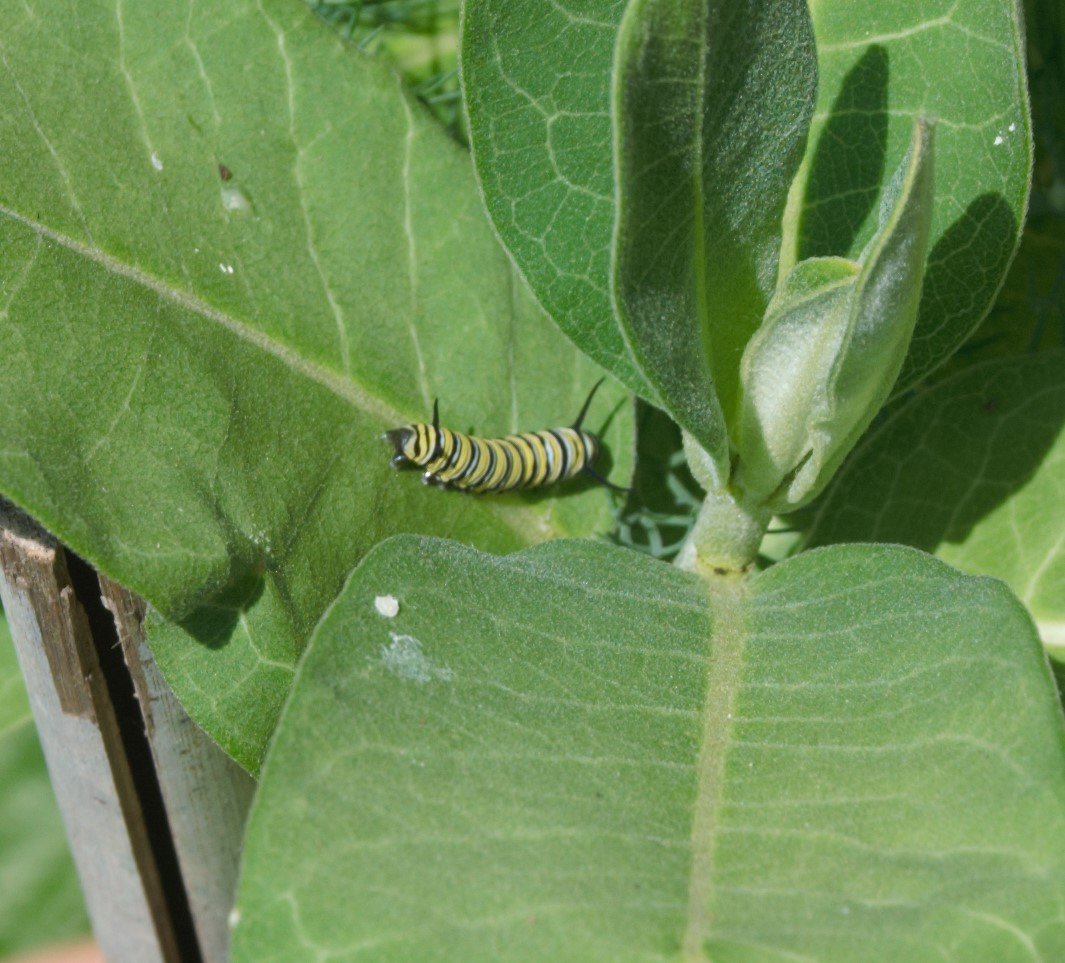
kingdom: Animalia
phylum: Arthropoda
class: Insecta
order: Lepidoptera
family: Nymphalidae
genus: Danaus
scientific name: Danaus plexippus
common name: Monarch
